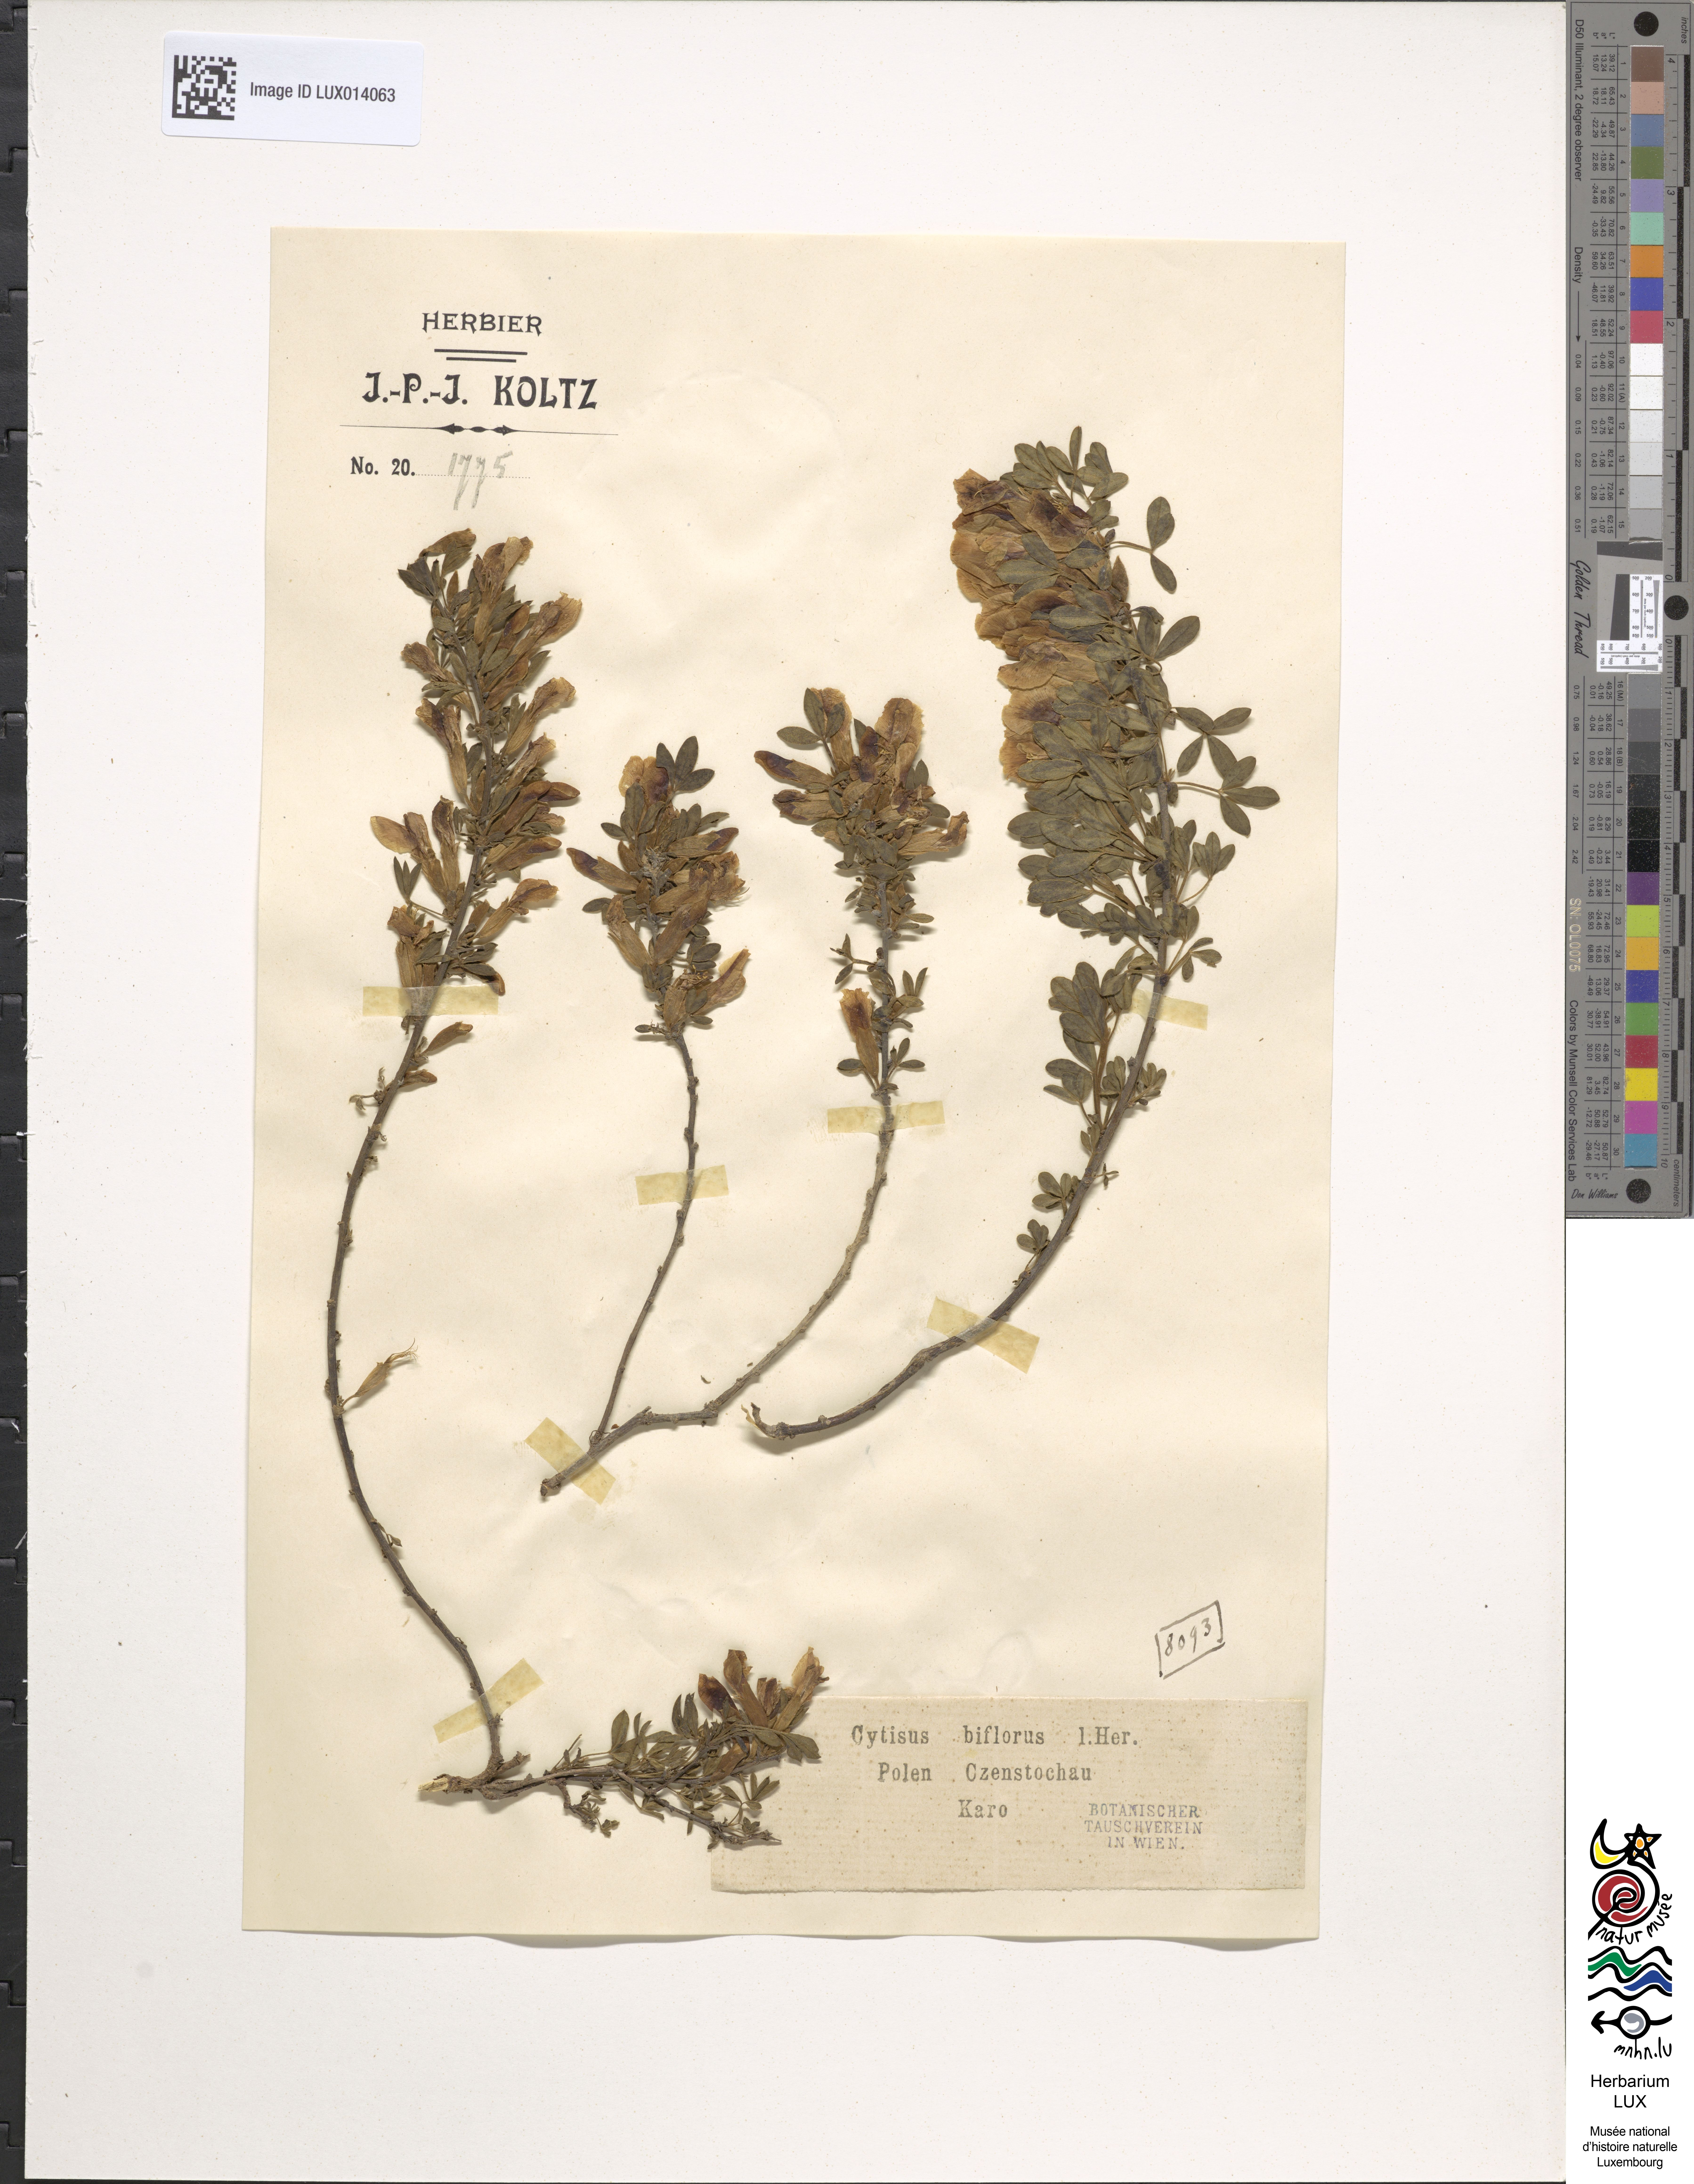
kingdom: Plantae
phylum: Tracheophyta
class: Magnoliopsida
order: Fabales
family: Fabaceae
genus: Chamaecytisus
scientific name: Chamaecytisus ratisbonensis
